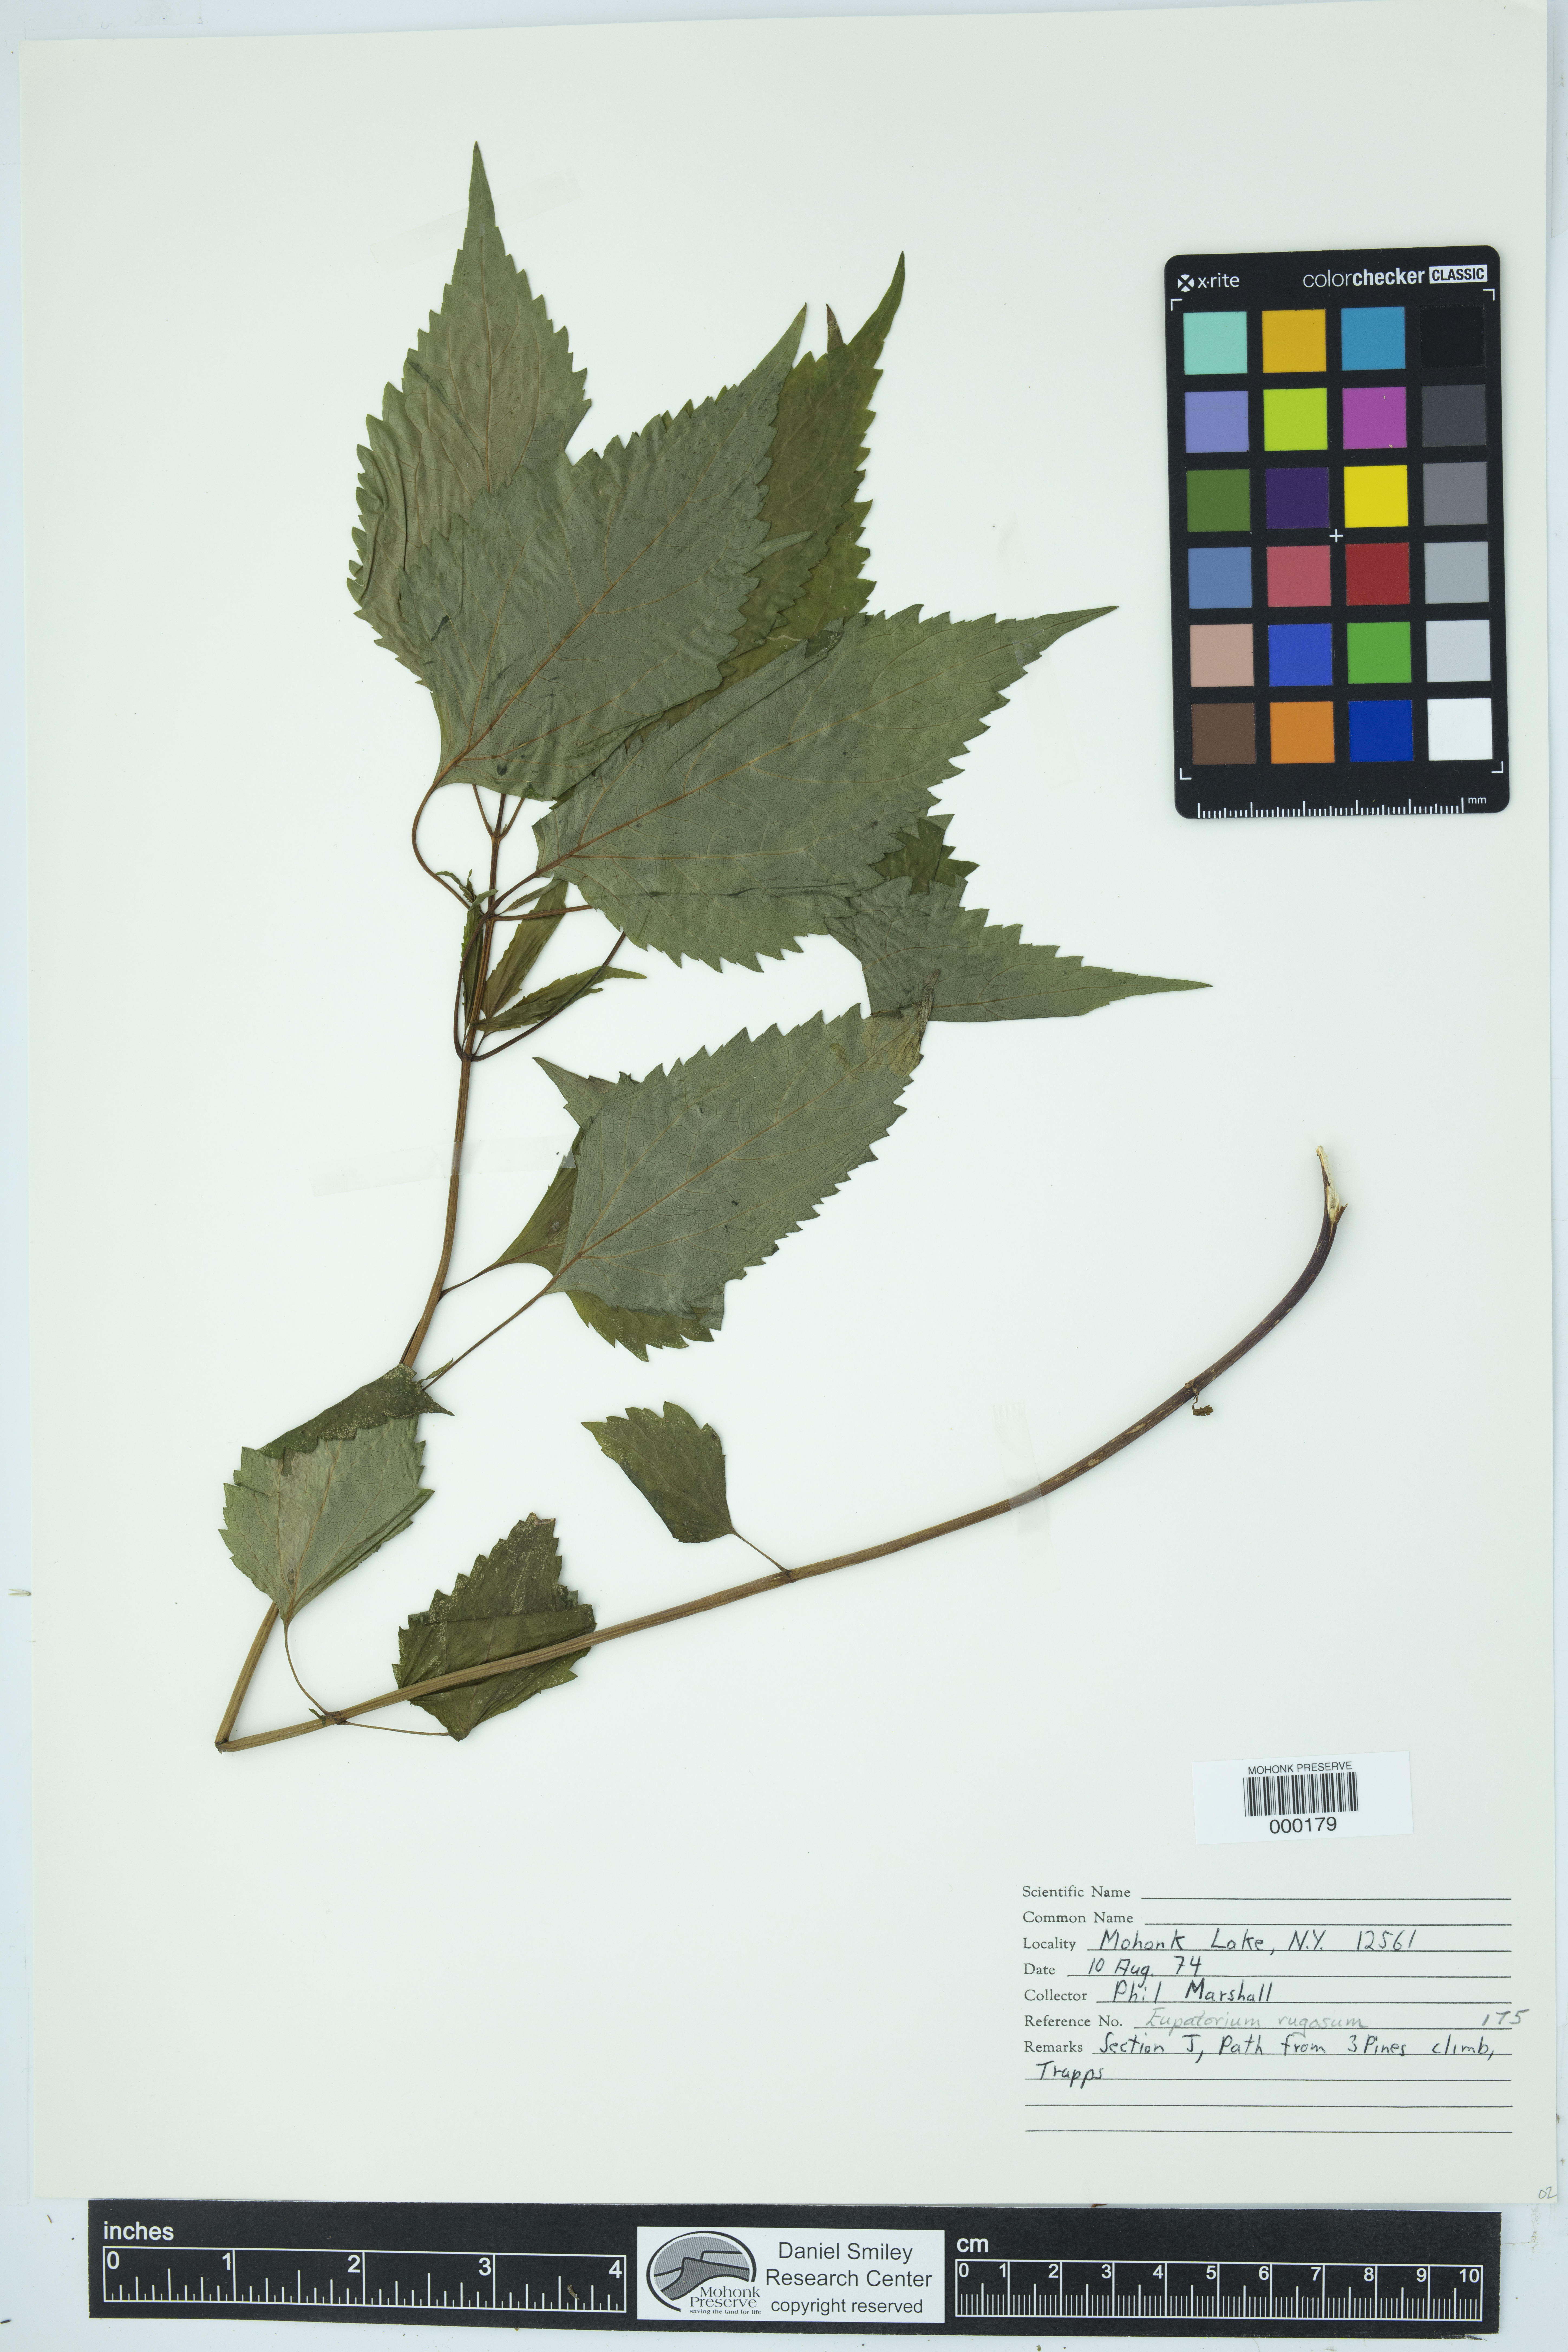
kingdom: Plantae
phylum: Tracheophyta
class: Magnoliopsida
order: Asterales
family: Asteraceae
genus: Ageratina
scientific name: Ageratina altissima
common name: White snakeroot
